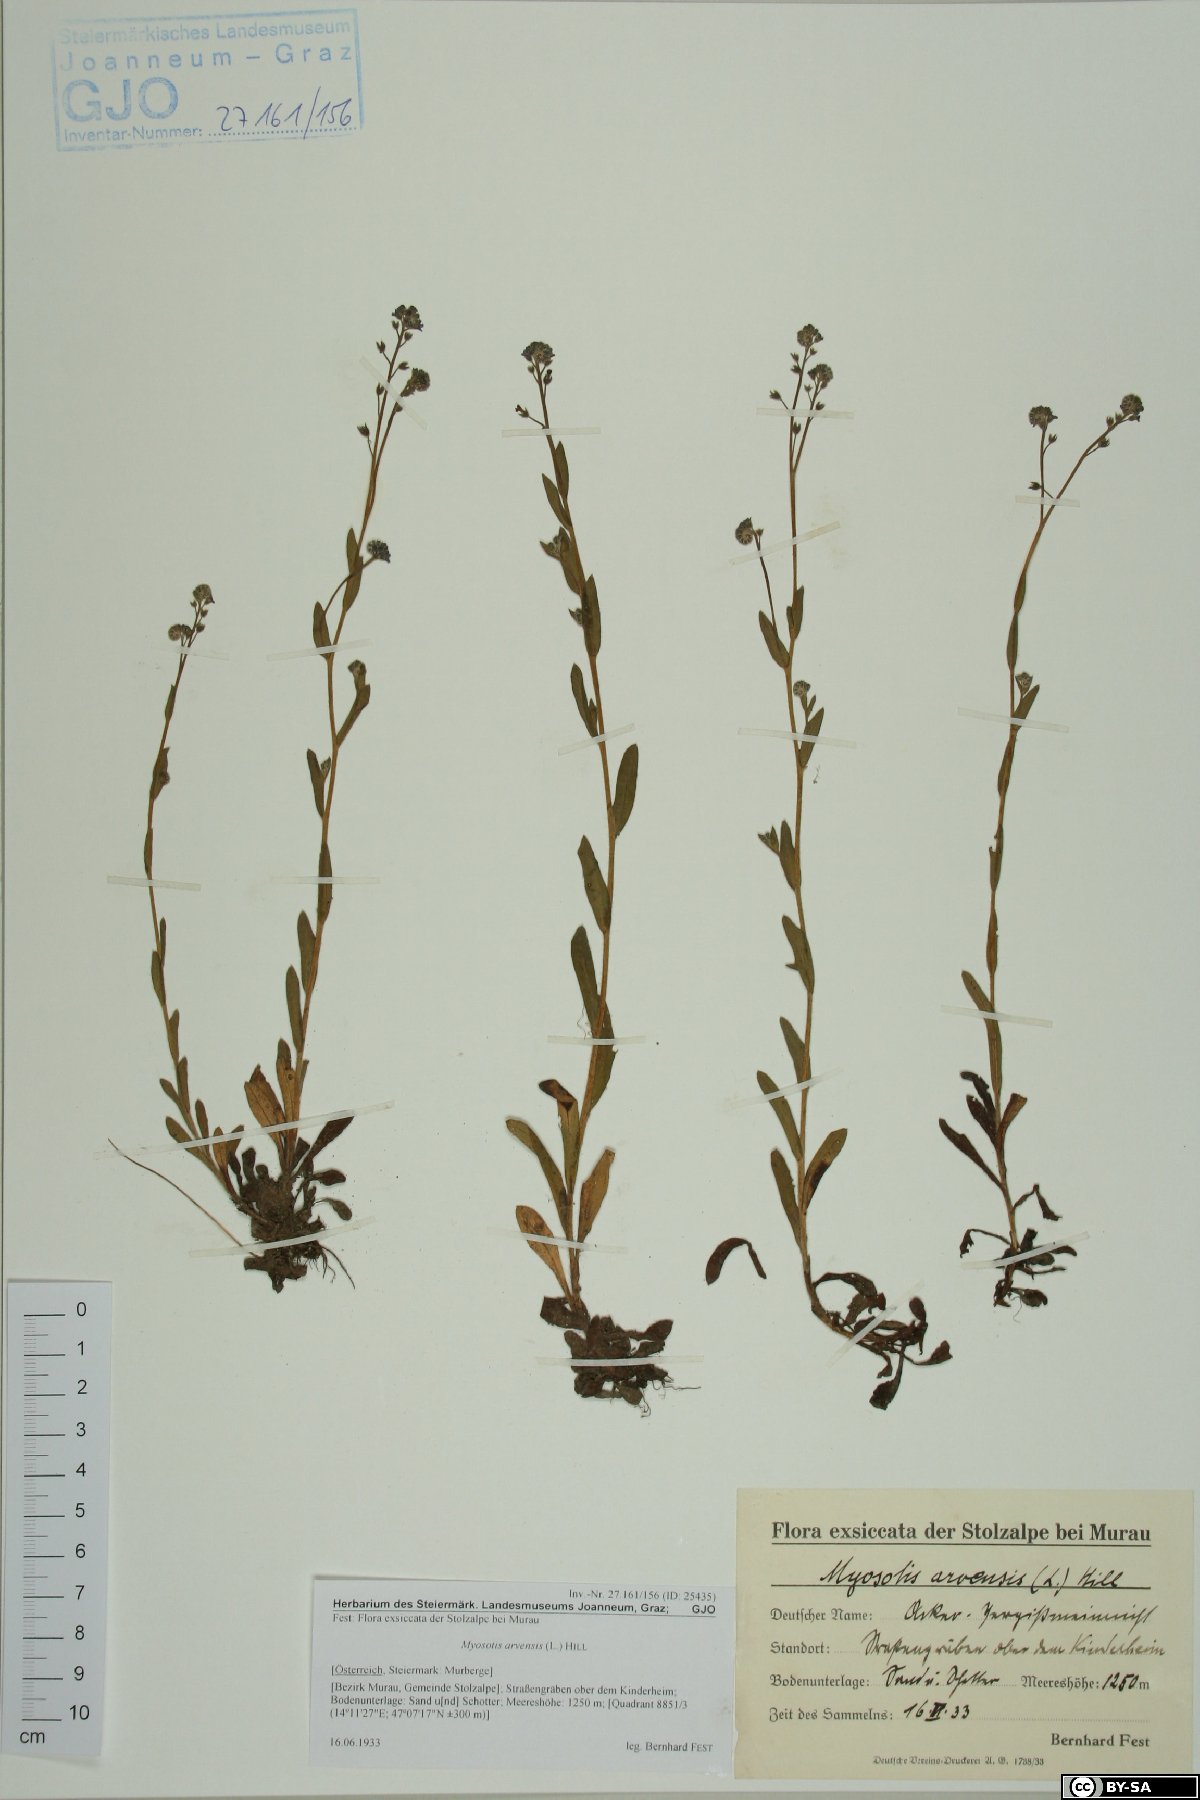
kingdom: Plantae
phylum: Tracheophyta
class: Magnoliopsida
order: Boraginales
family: Boraginaceae
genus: Myosotis
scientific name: Myosotis arvensis
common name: Field forget-me-not
